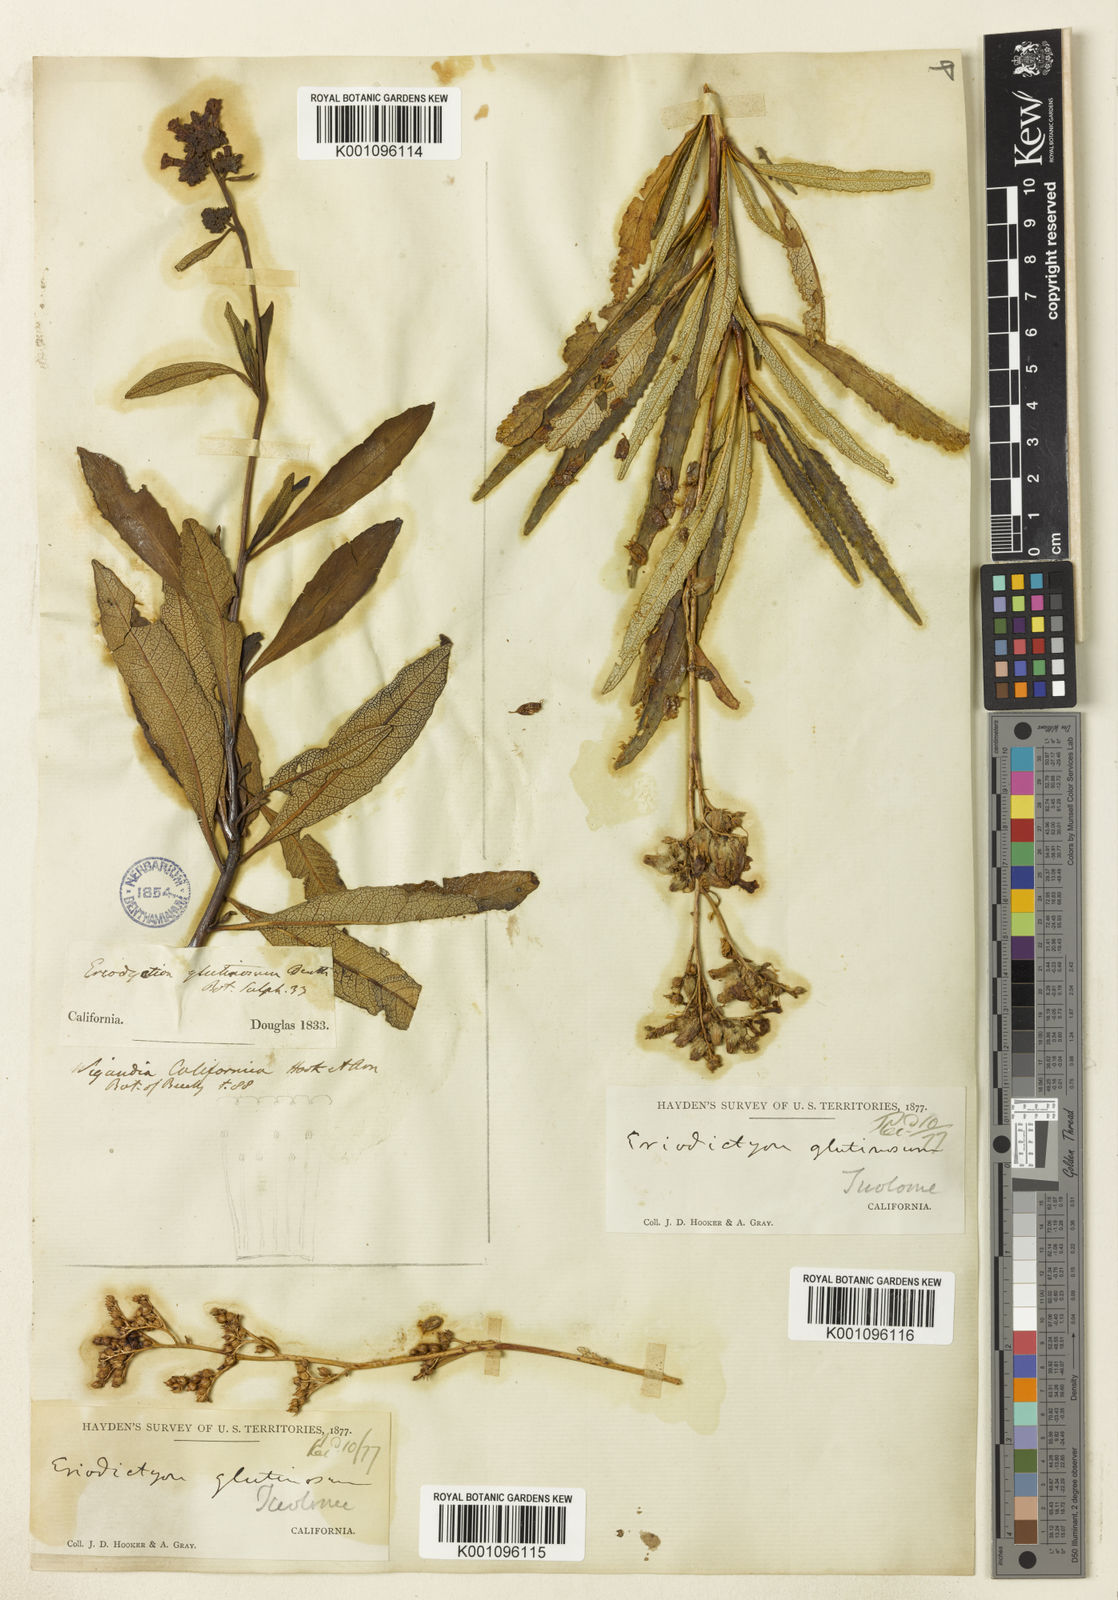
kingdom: Plantae
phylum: Tracheophyta
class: Magnoliopsida
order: Boraginales
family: Namaceae
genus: Eriodictyon
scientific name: Eriodictyon
